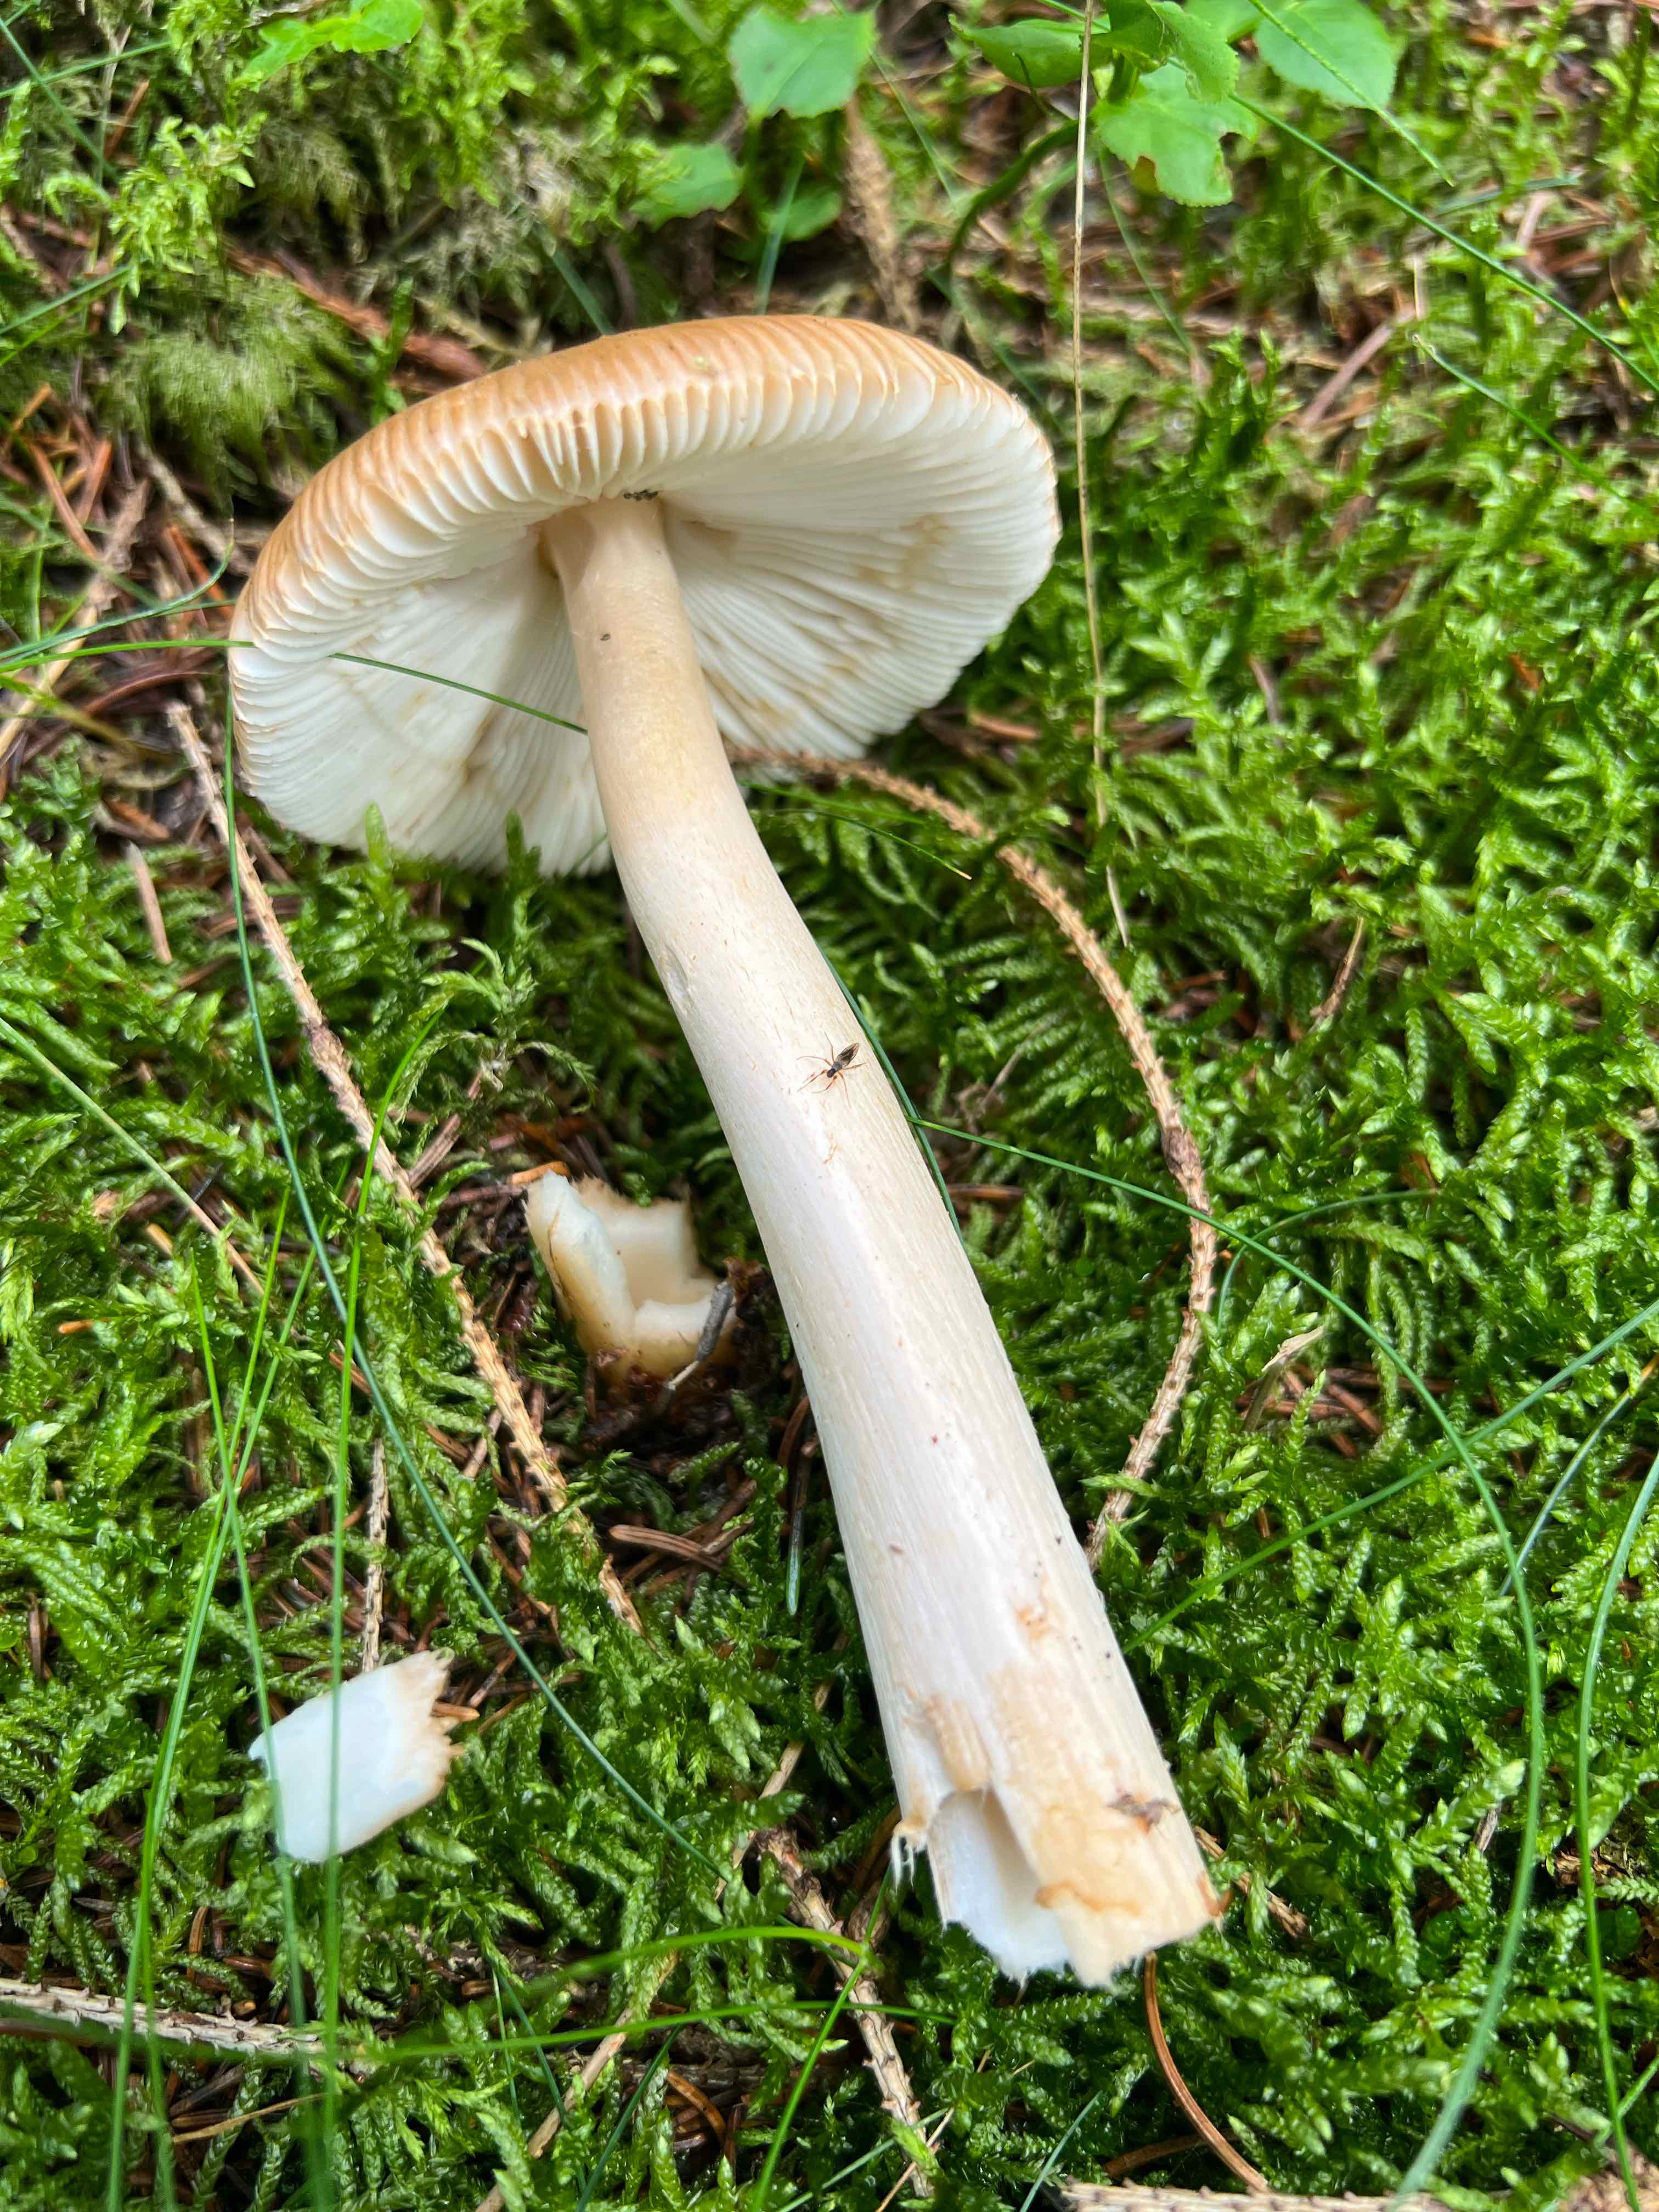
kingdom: Fungi
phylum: Basidiomycota
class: Agaricomycetes
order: Agaricales
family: Amanitaceae
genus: Amanita
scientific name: Amanita fulva
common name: brun kam-fluesvamp
